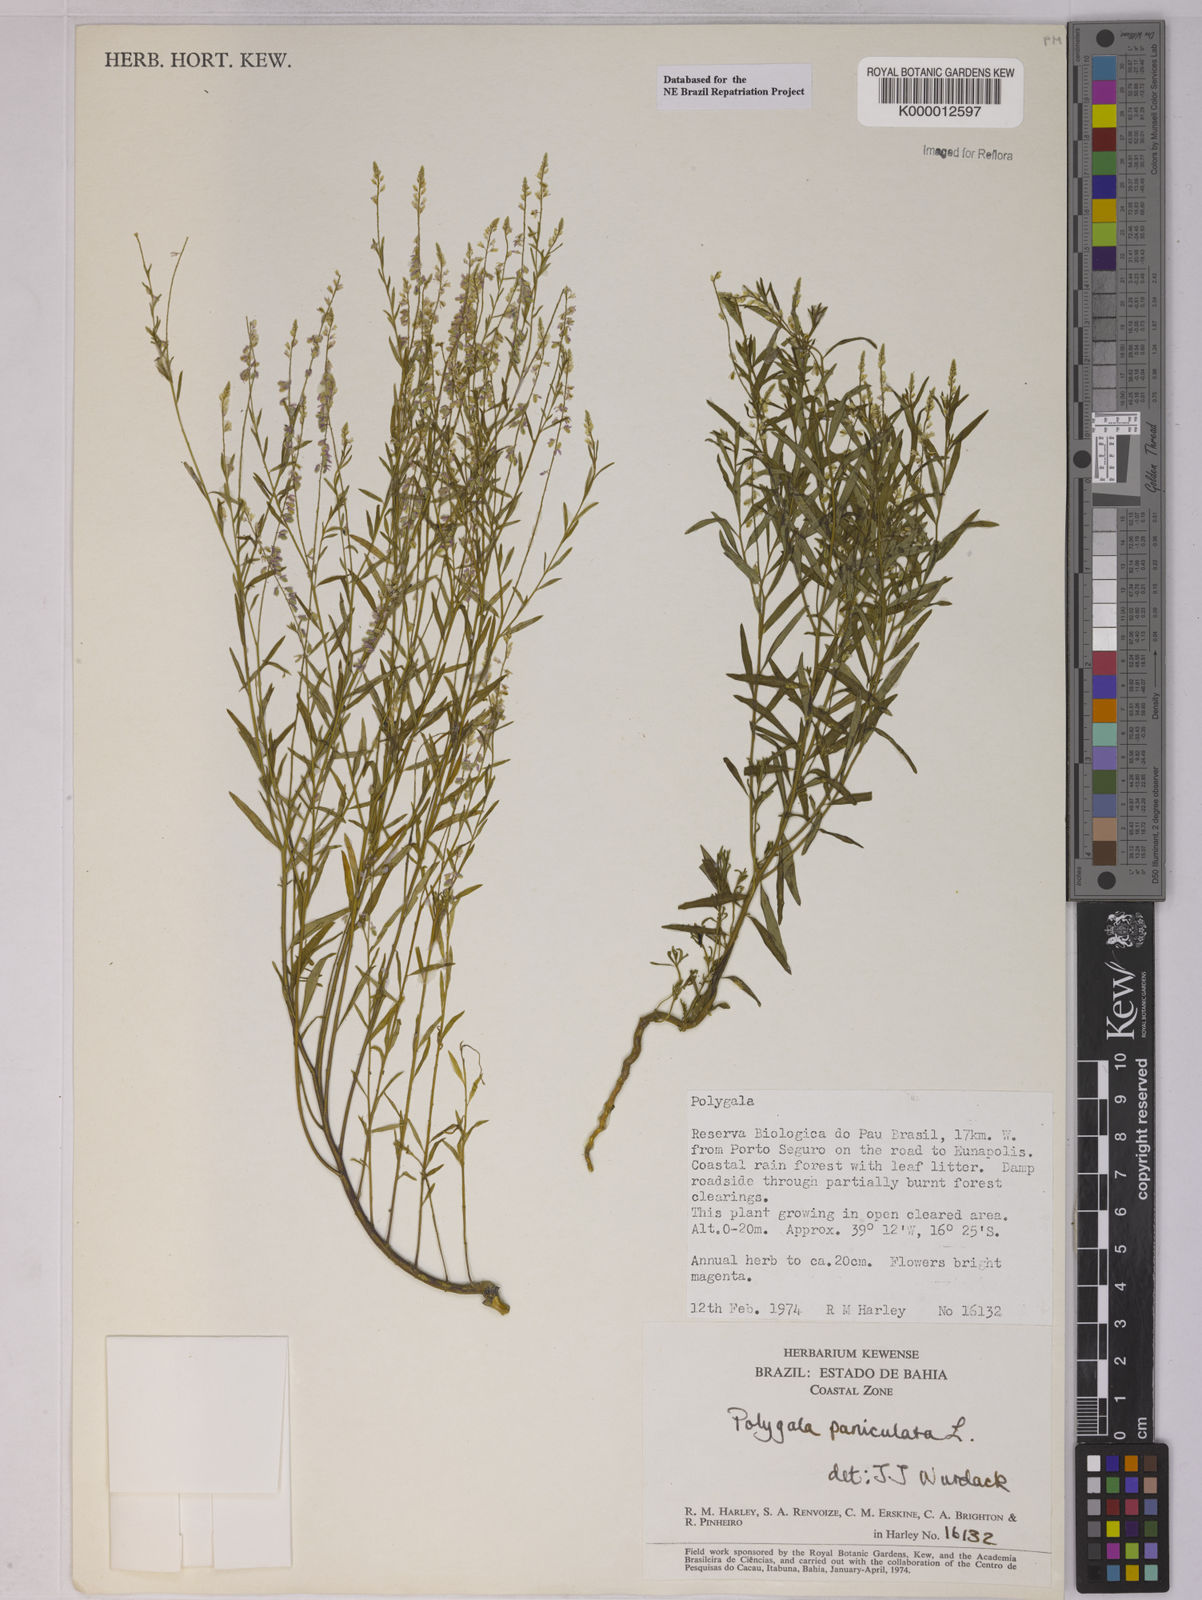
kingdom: Plantae
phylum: Tracheophyta
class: Magnoliopsida
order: Fabales
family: Polygalaceae
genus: Polygala
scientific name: Polygala paniculata
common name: Orosne
